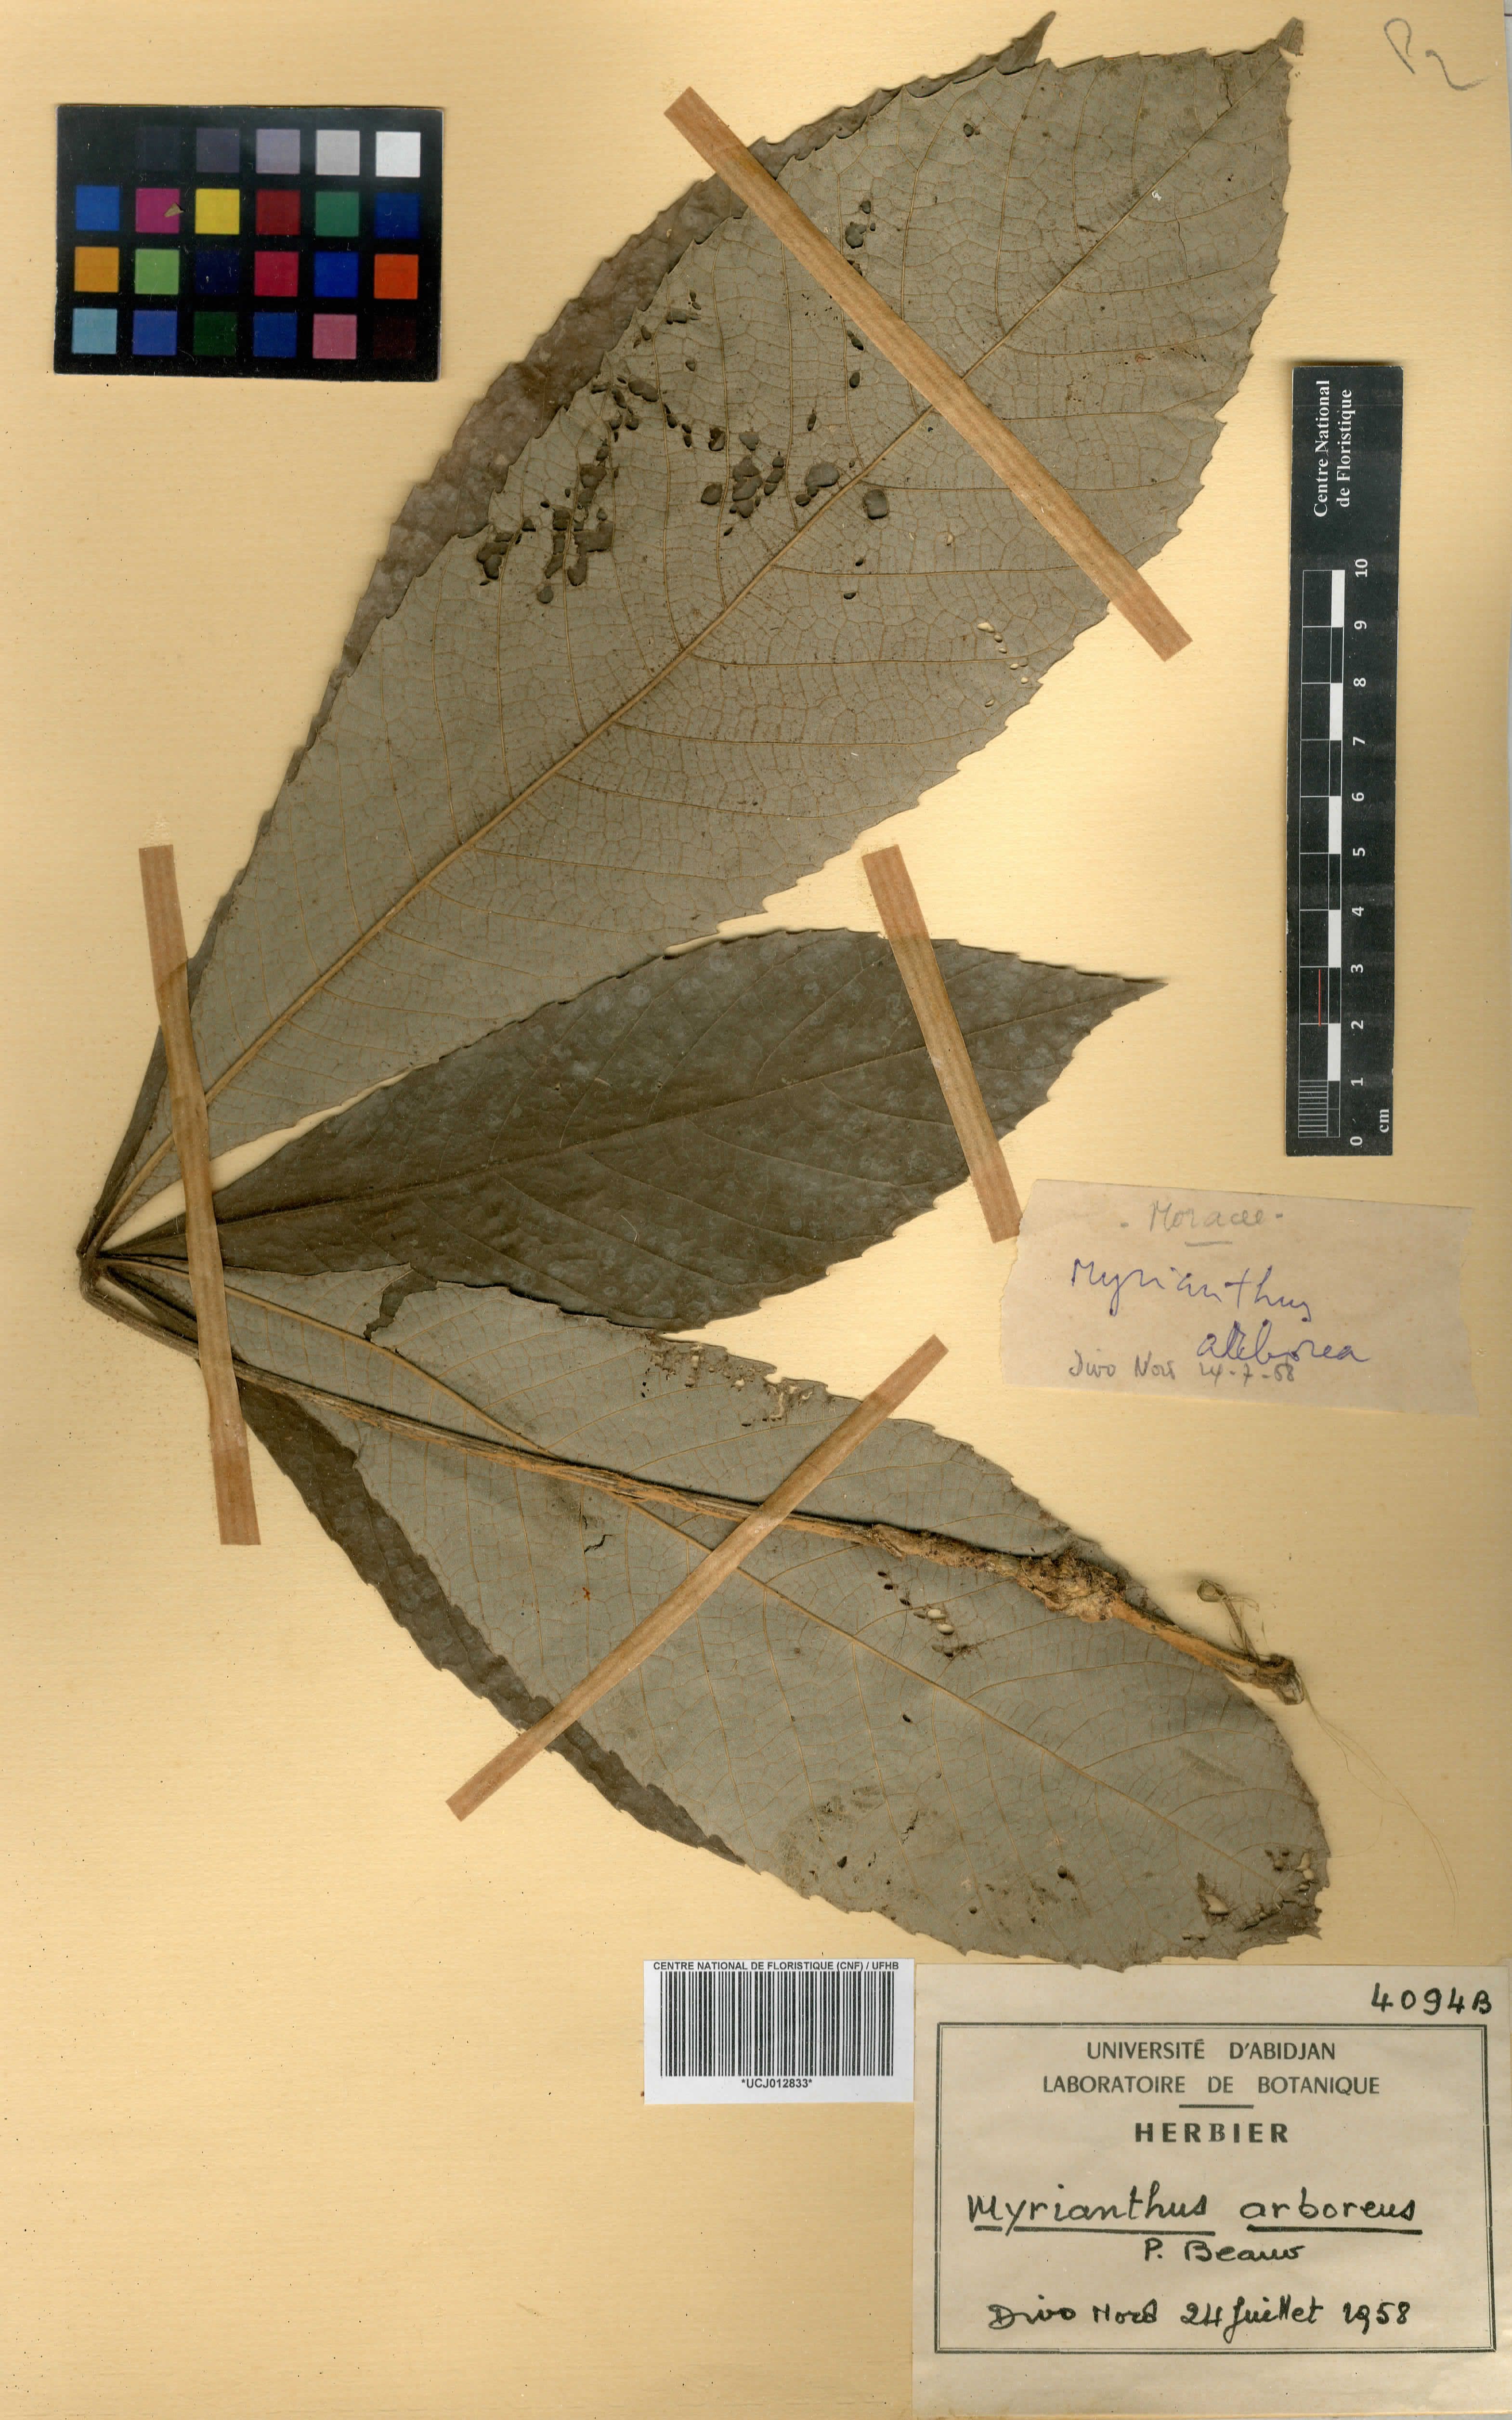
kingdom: Plantae
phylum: Tracheophyta
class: Magnoliopsida
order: Rosales
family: Urticaceae
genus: Myrianthus
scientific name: Myrianthus arboreus
